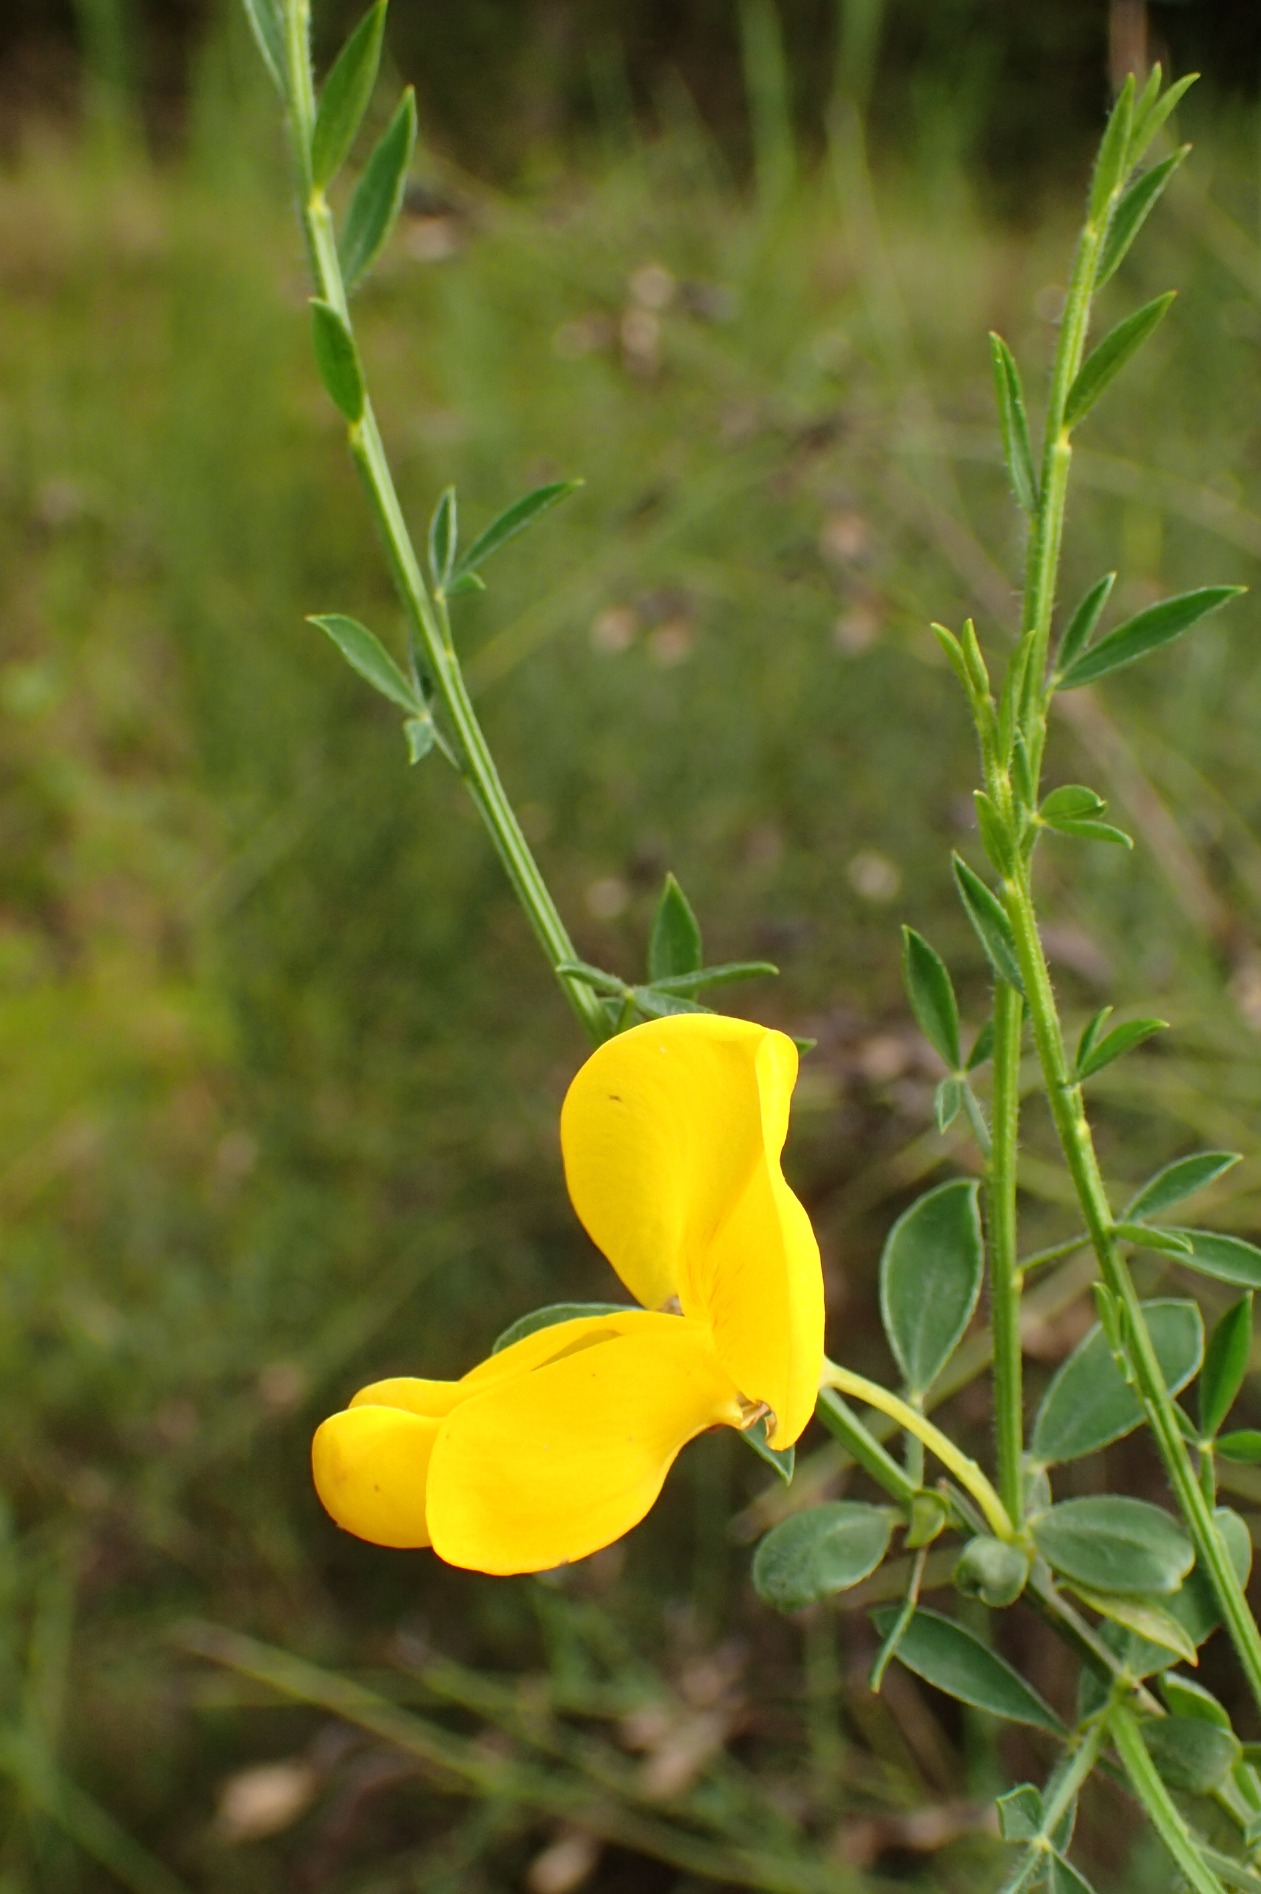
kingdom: Plantae
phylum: Tracheophyta
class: Magnoliopsida
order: Fabales
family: Fabaceae
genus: Cytisus
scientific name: Cytisus scoparius
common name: Almindelig gyvel
